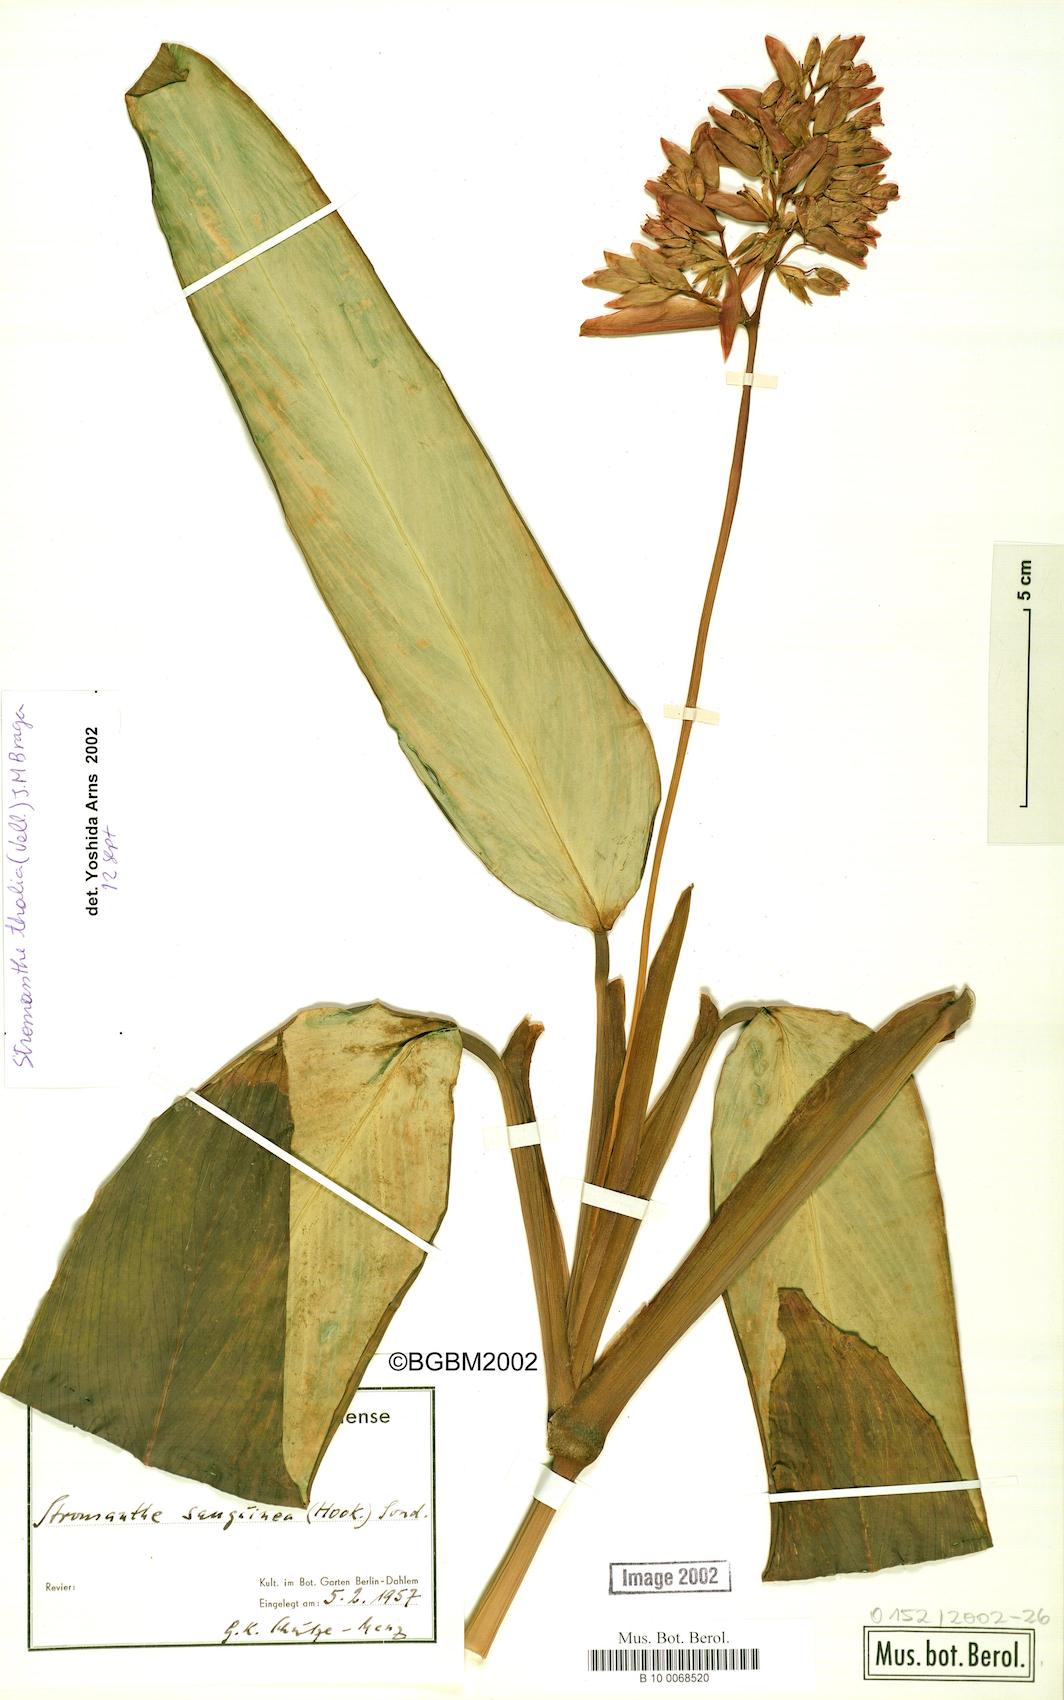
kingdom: Plantae
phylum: Tracheophyta
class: Liliopsida
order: Zingiberales
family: Marantaceae
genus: Stromanthe
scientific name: Stromanthe thalia
